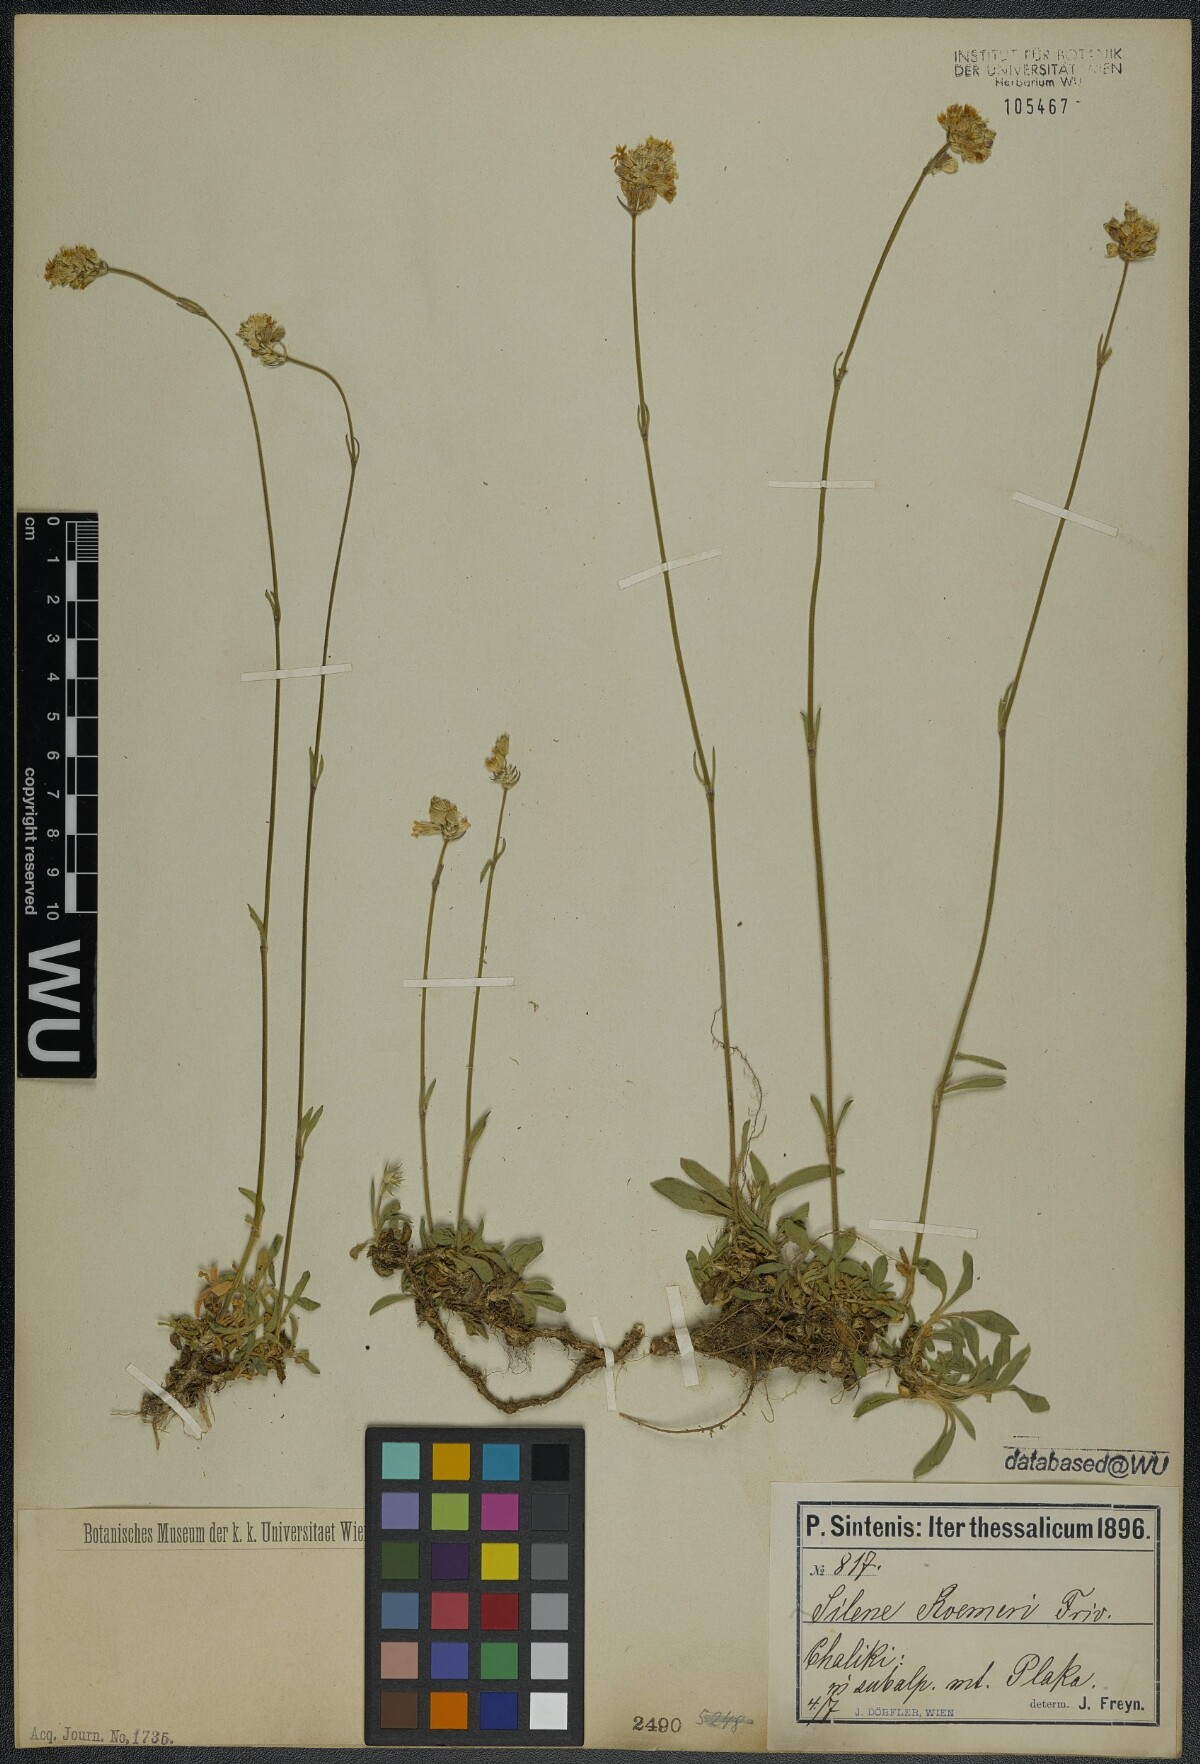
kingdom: Plantae
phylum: Tracheophyta
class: Magnoliopsida
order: Caryophyllales
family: Caryophyllaceae
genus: Silene
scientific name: Silene roemeri
